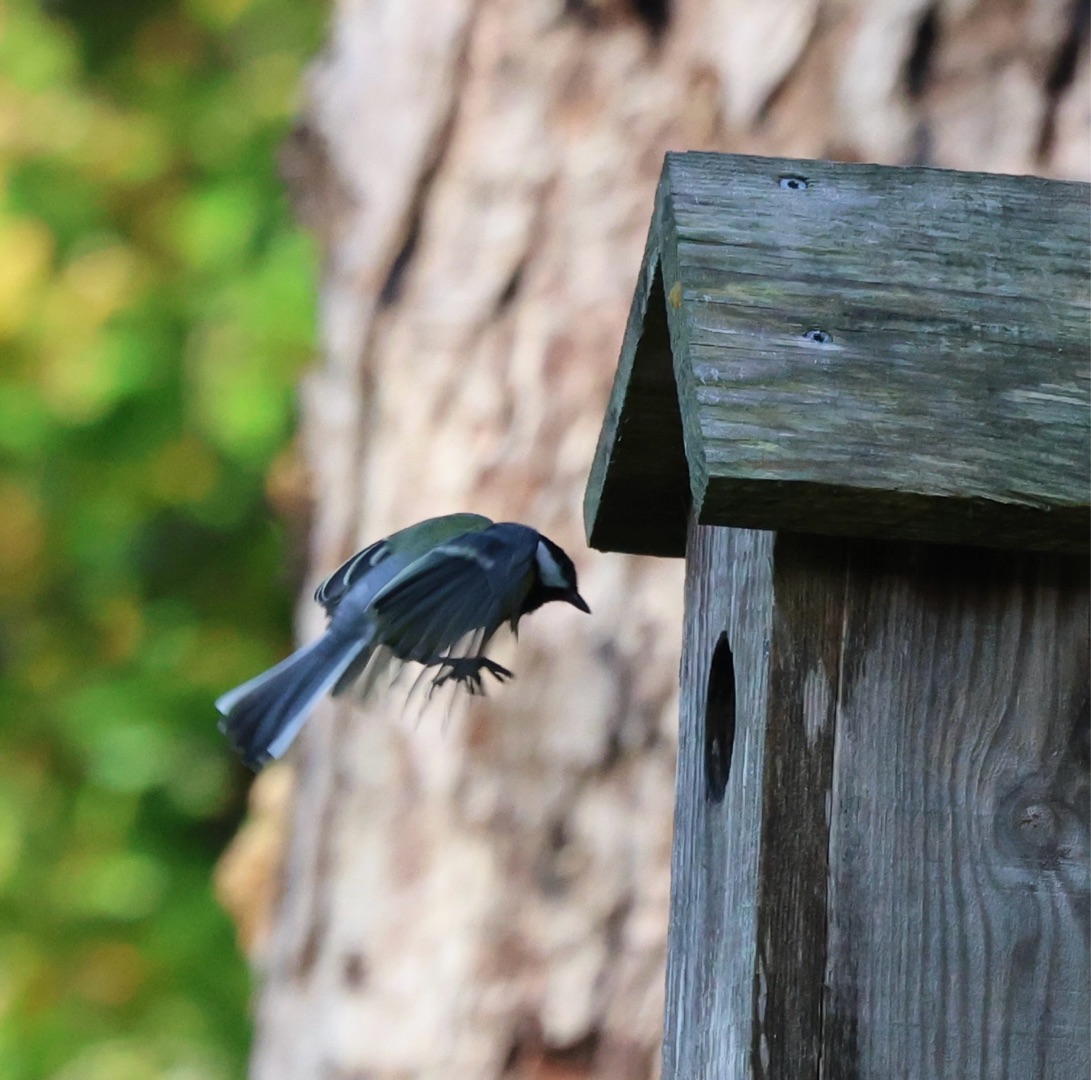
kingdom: Animalia
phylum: Chordata
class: Aves
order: Passeriformes
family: Paridae
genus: Parus
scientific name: Parus major
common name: Musvit
